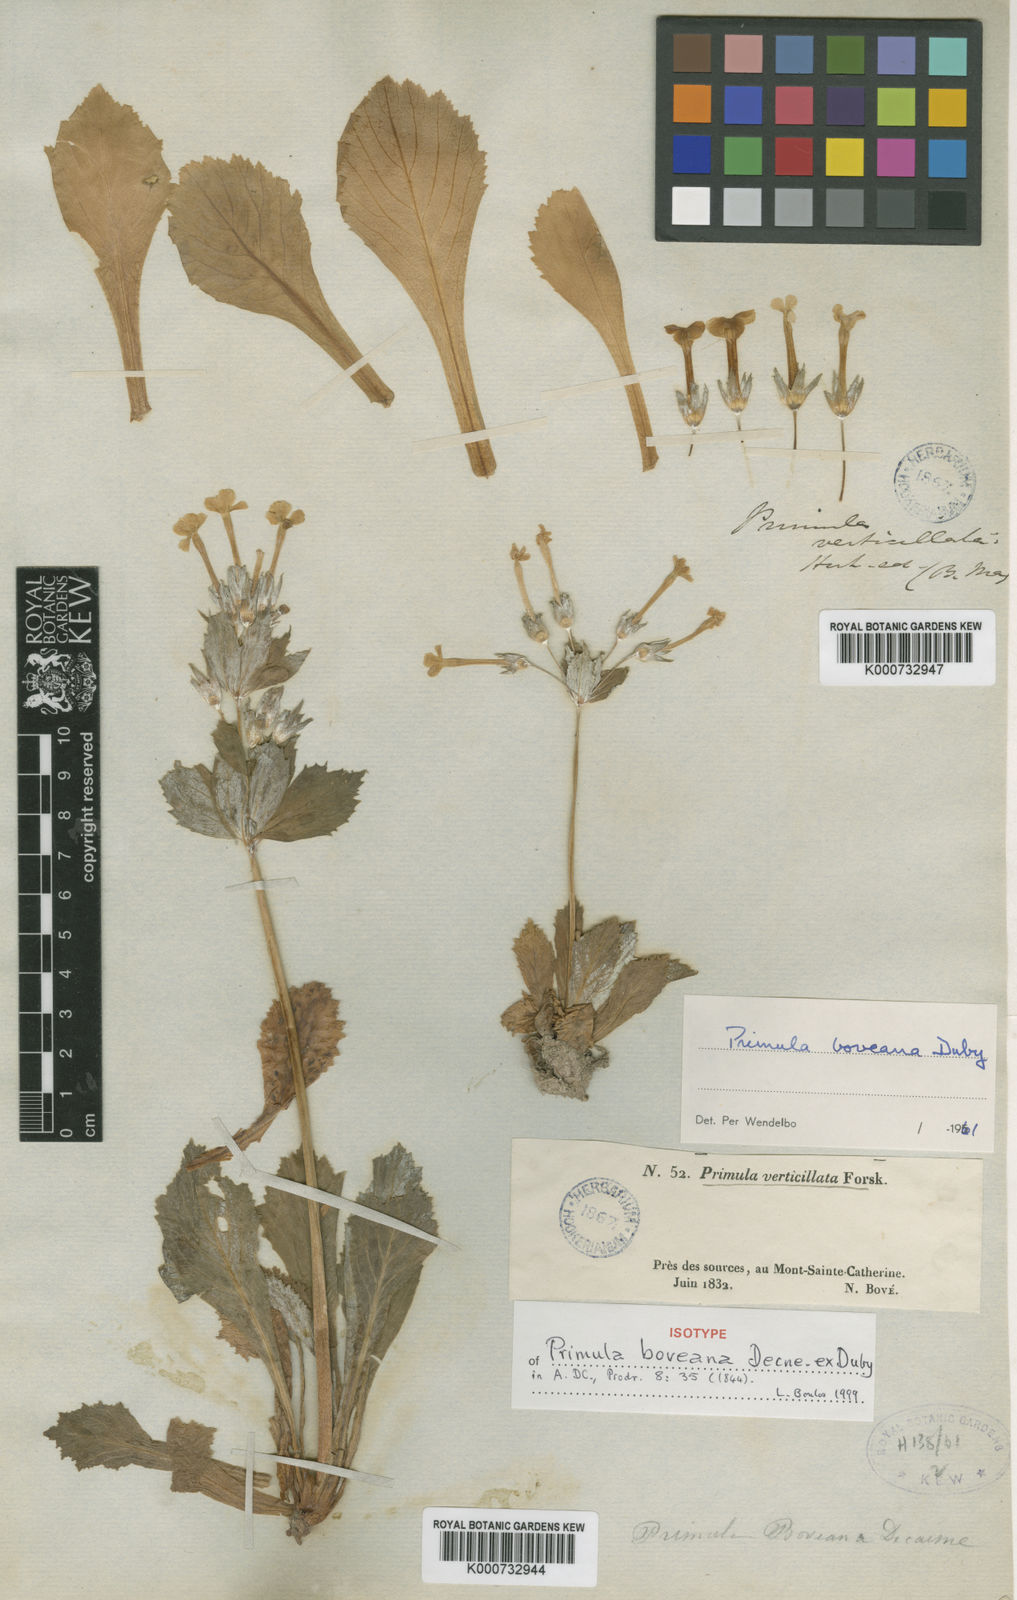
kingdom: Plantae
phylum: Tracheophyta
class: Magnoliopsida
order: Ericales
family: Primulaceae
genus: Evotrochis
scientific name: Evotrochis involucrata
